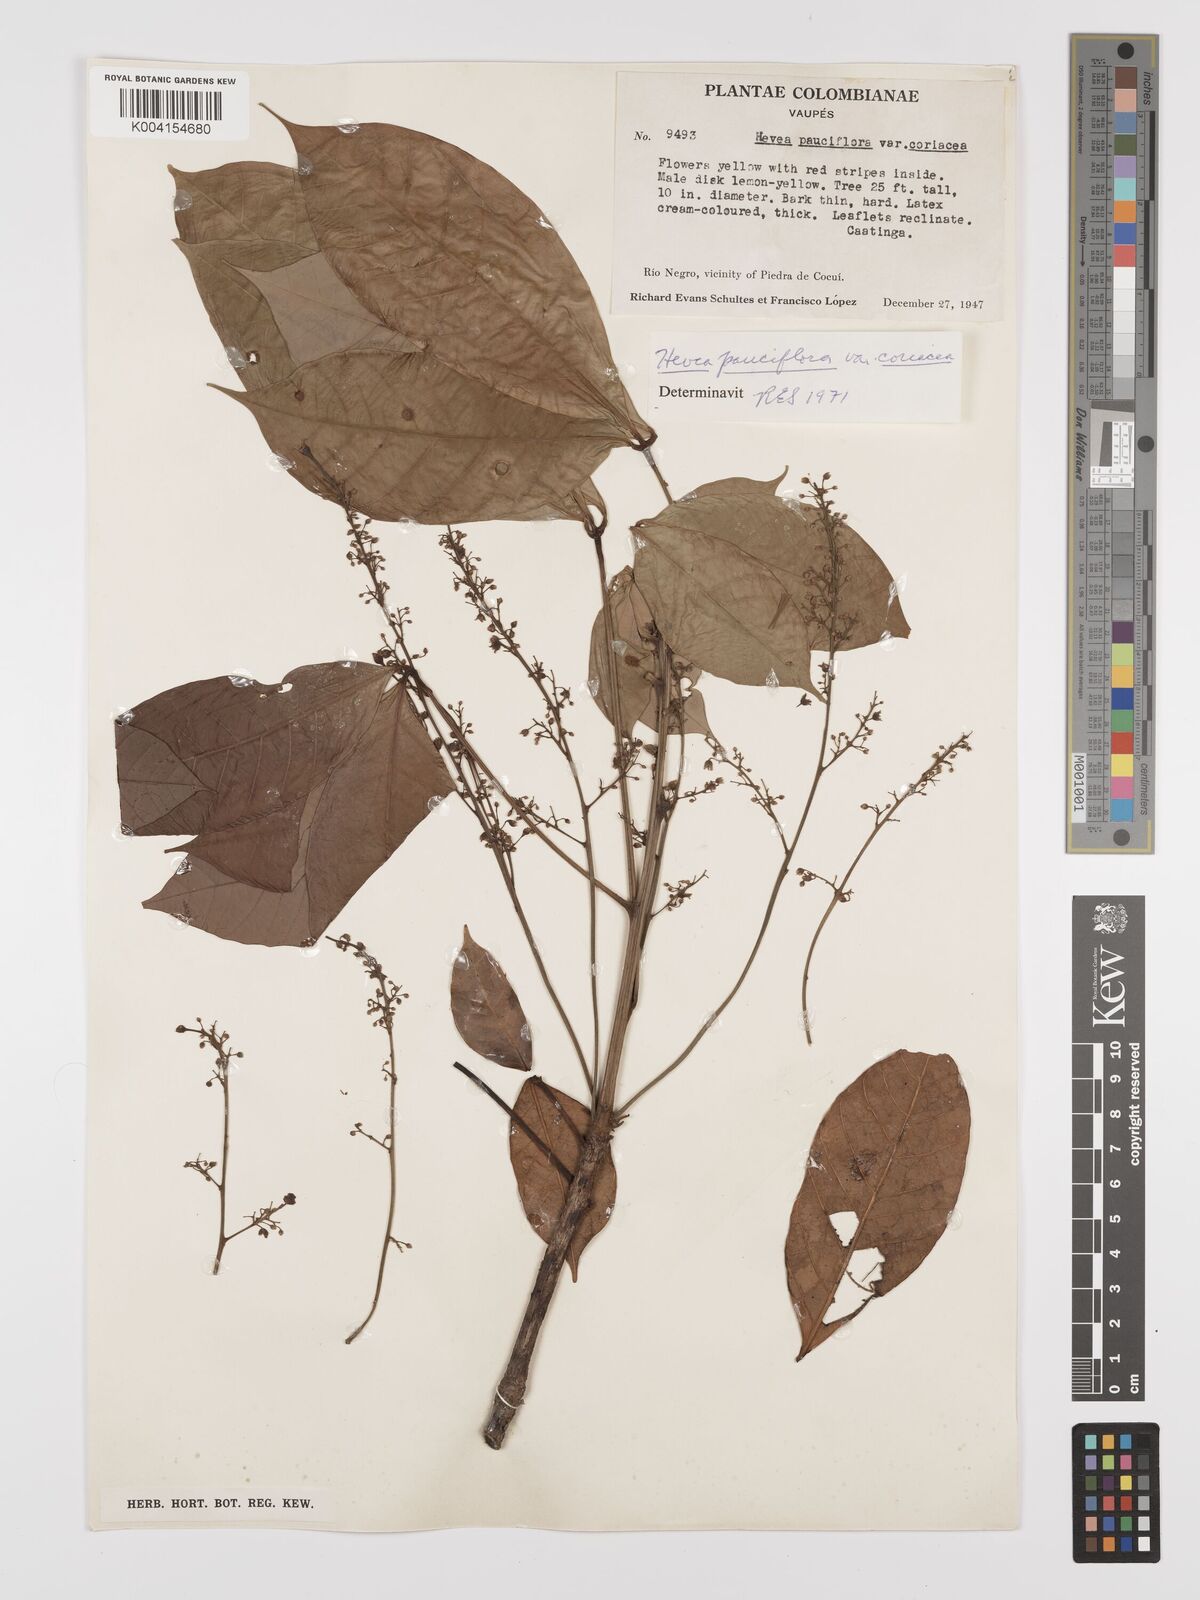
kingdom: Plantae
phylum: Tracheophyta
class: Magnoliopsida
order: Malpighiales
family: Euphorbiaceae
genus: Hevea
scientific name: Hevea pauciflora
